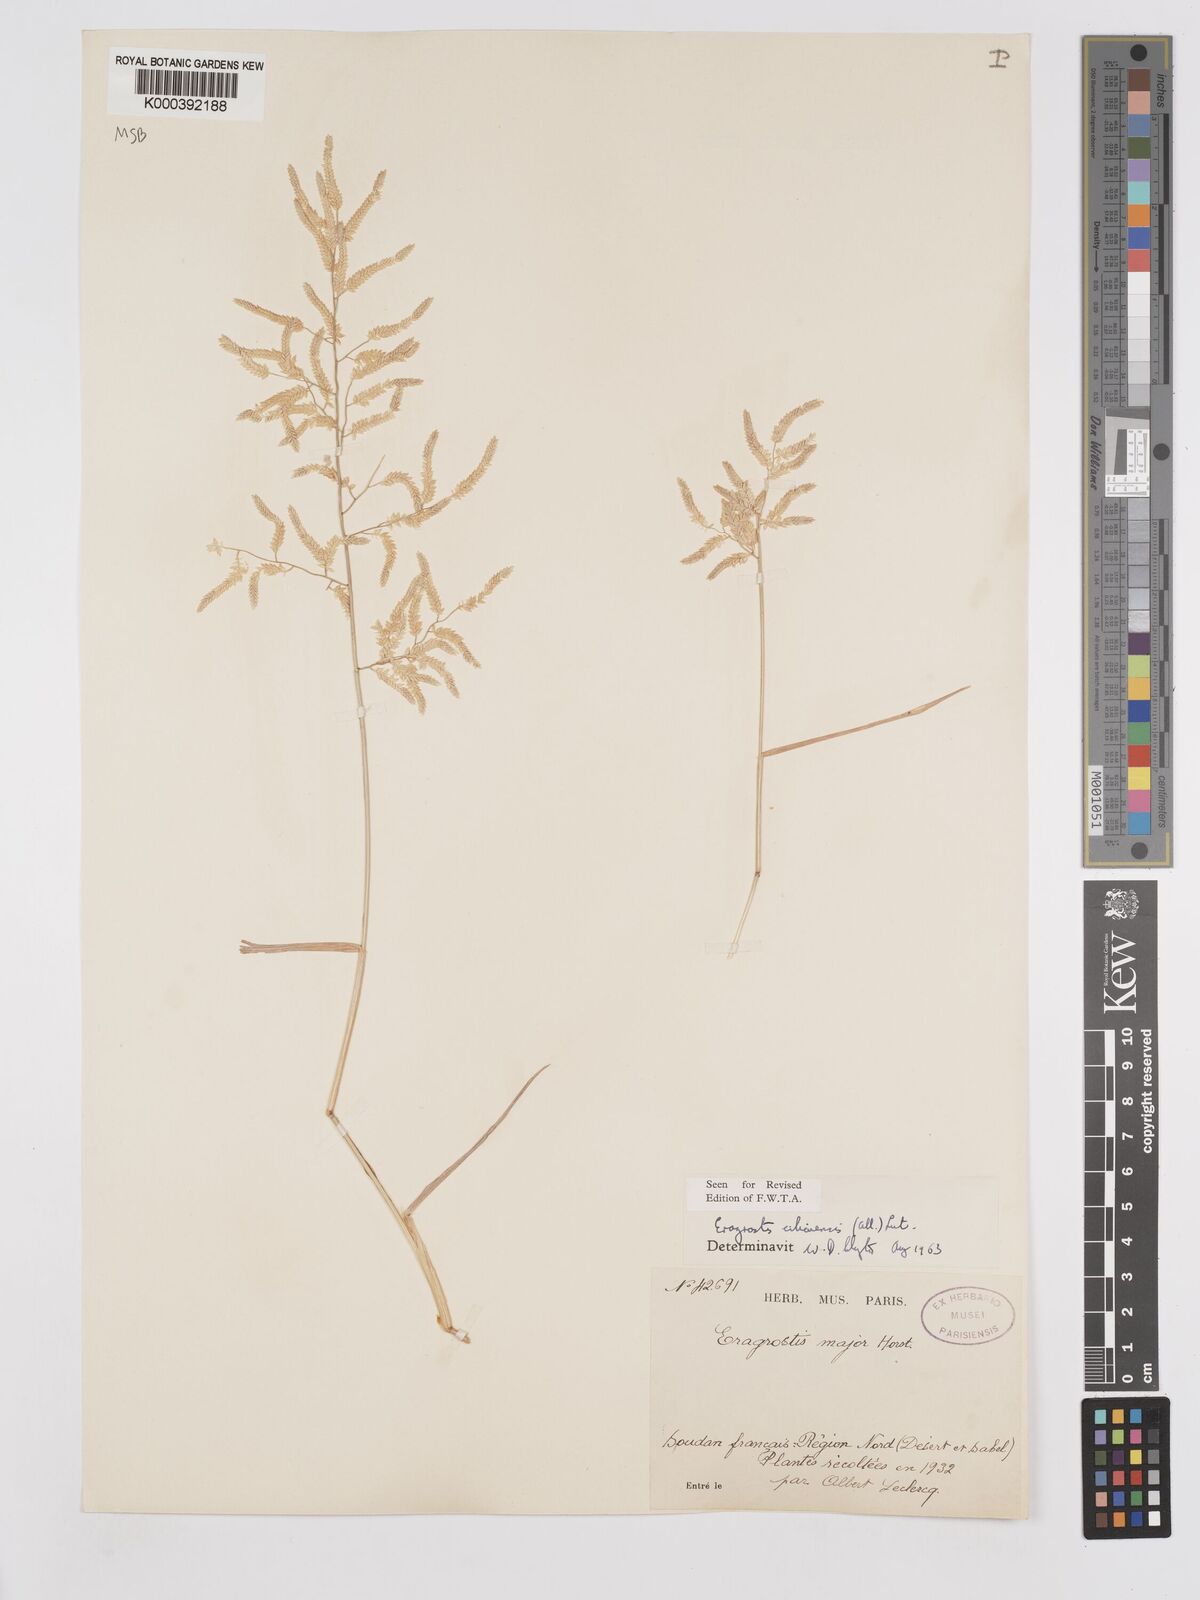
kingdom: Plantae
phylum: Tracheophyta
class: Liliopsida
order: Poales
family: Poaceae
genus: Eragrostis
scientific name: Eragrostis cilianensis
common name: Stinkgrass
